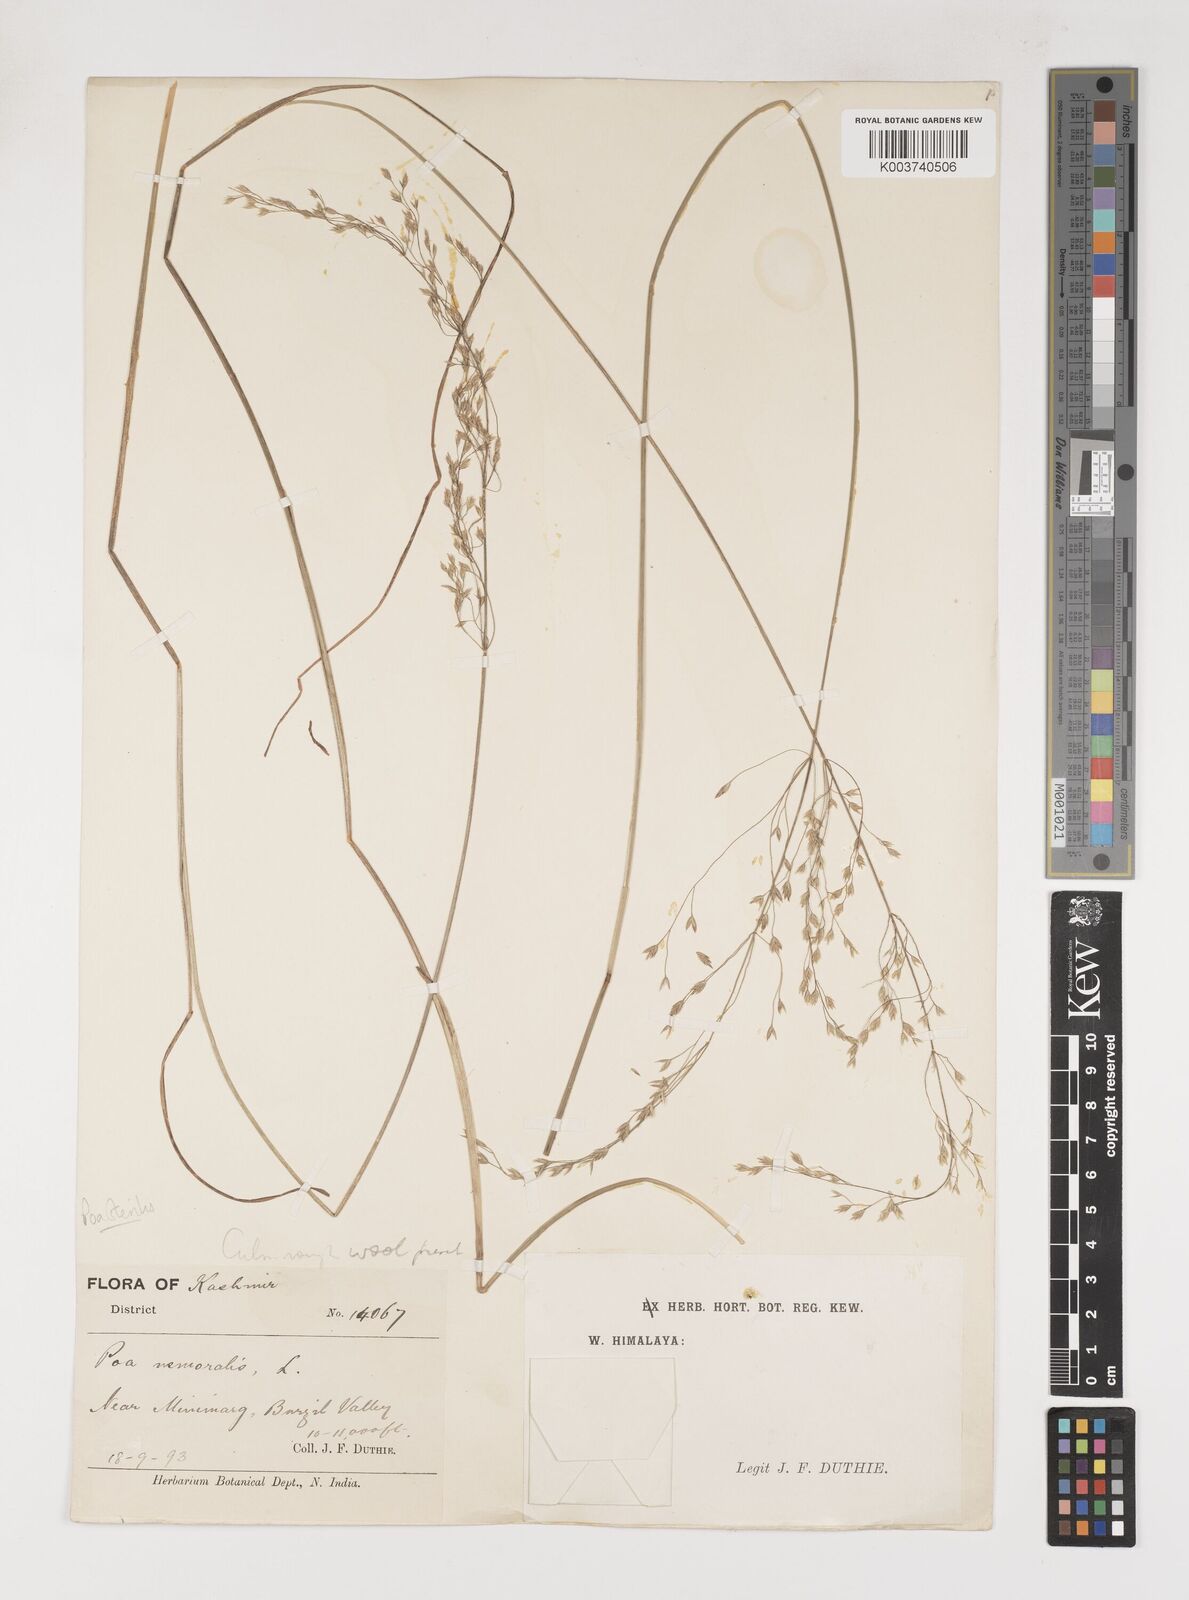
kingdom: Plantae
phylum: Tracheophyta
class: Liliopsida
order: Poales
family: Poaceae
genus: Poa
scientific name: Poa sterilis
